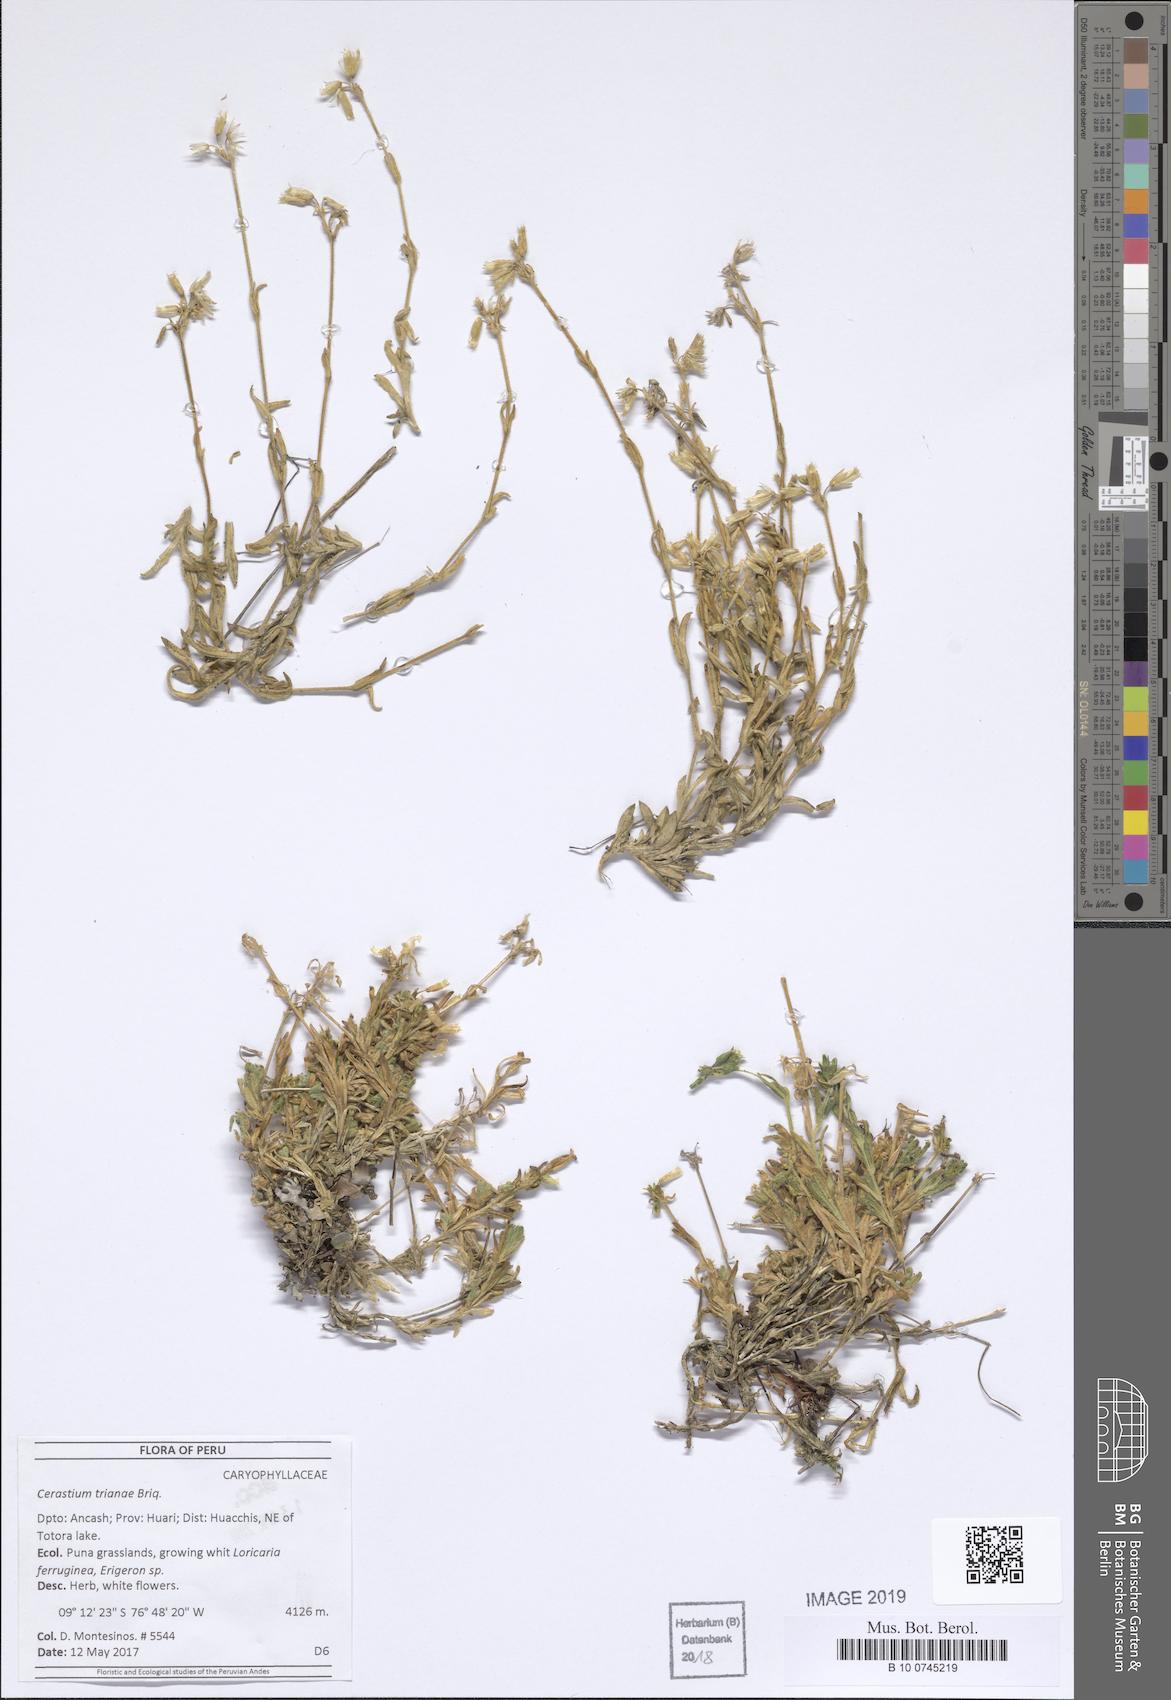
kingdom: Plantae
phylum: Tracheophyta
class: Magnoliopsida
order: Caryophyllales
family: Caryophyllaceae
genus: Cerastium
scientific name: Cerastium trianae
